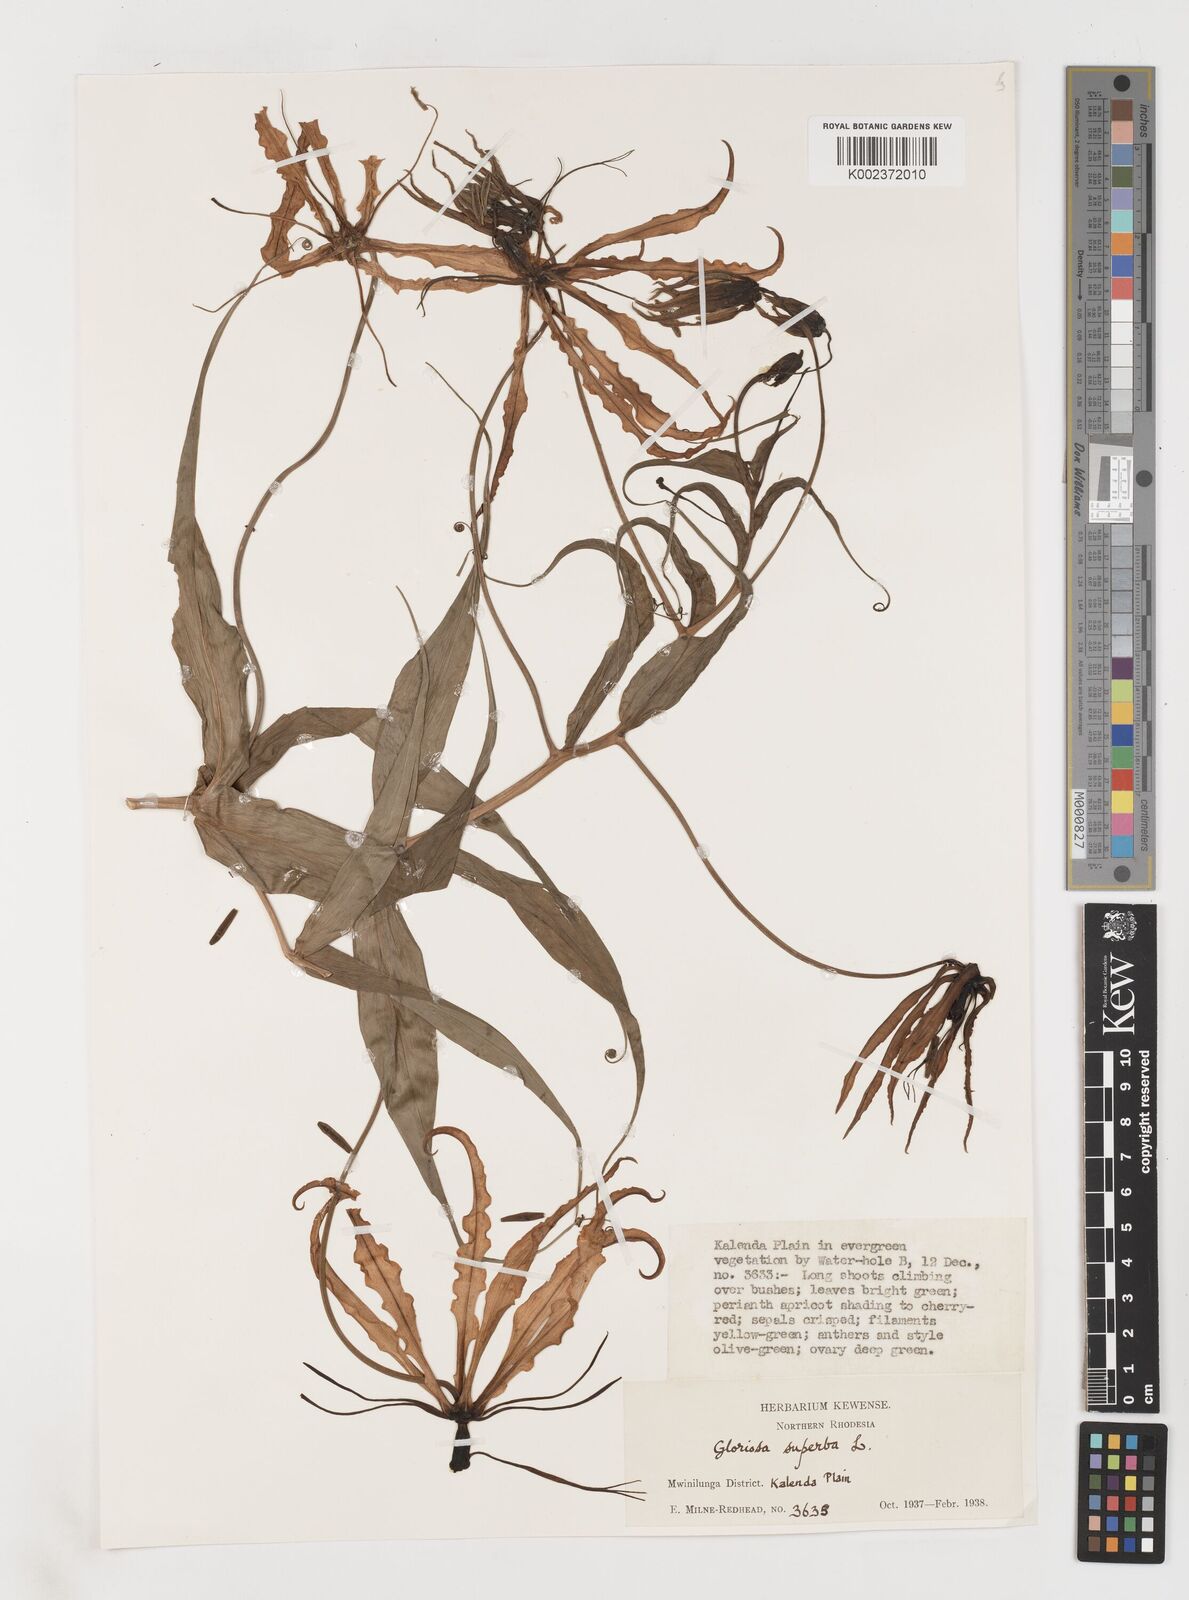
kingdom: Plantae
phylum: Tracheophyta
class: Liliopsida
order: Liliales
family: Colchicaceae
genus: Gloriosa
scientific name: Gloriosa superba
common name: Flame lily
